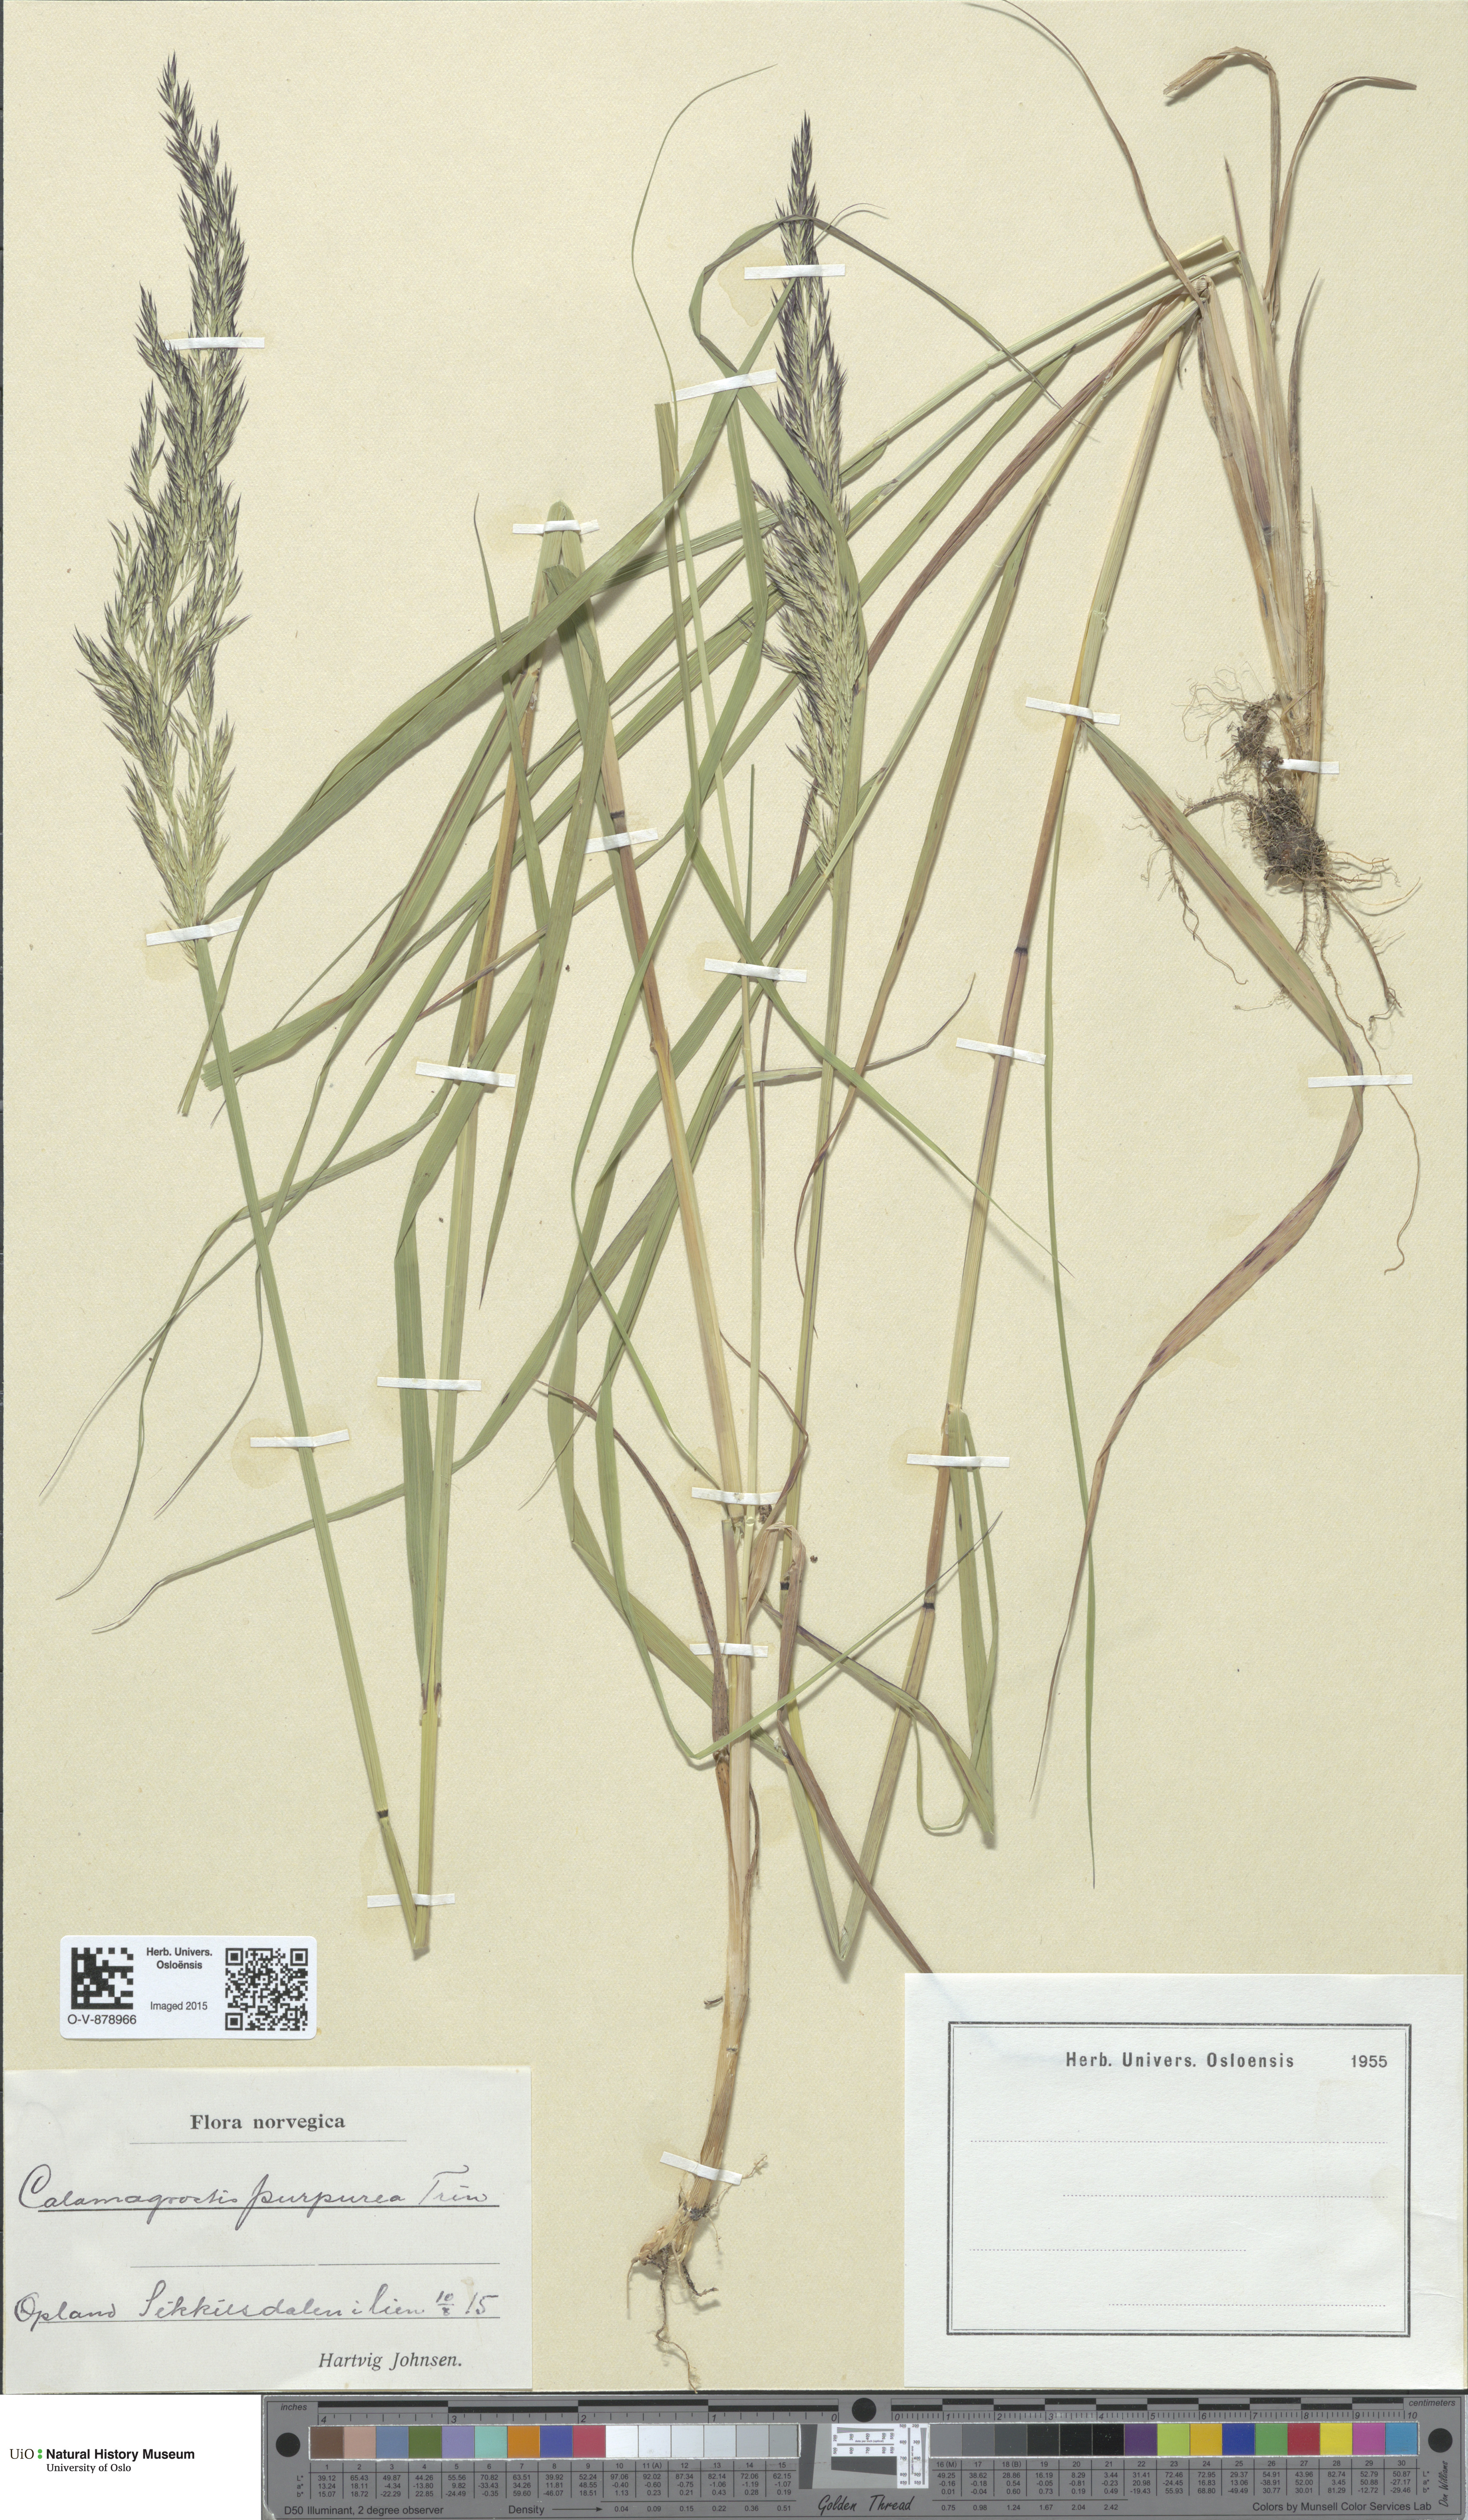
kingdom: Plantae
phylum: Tracheophyta
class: Liliopsida
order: Poales
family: Poaceae
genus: Calamagrostis
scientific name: Calamagrostis purpurea
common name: Scandinavian small-reed
